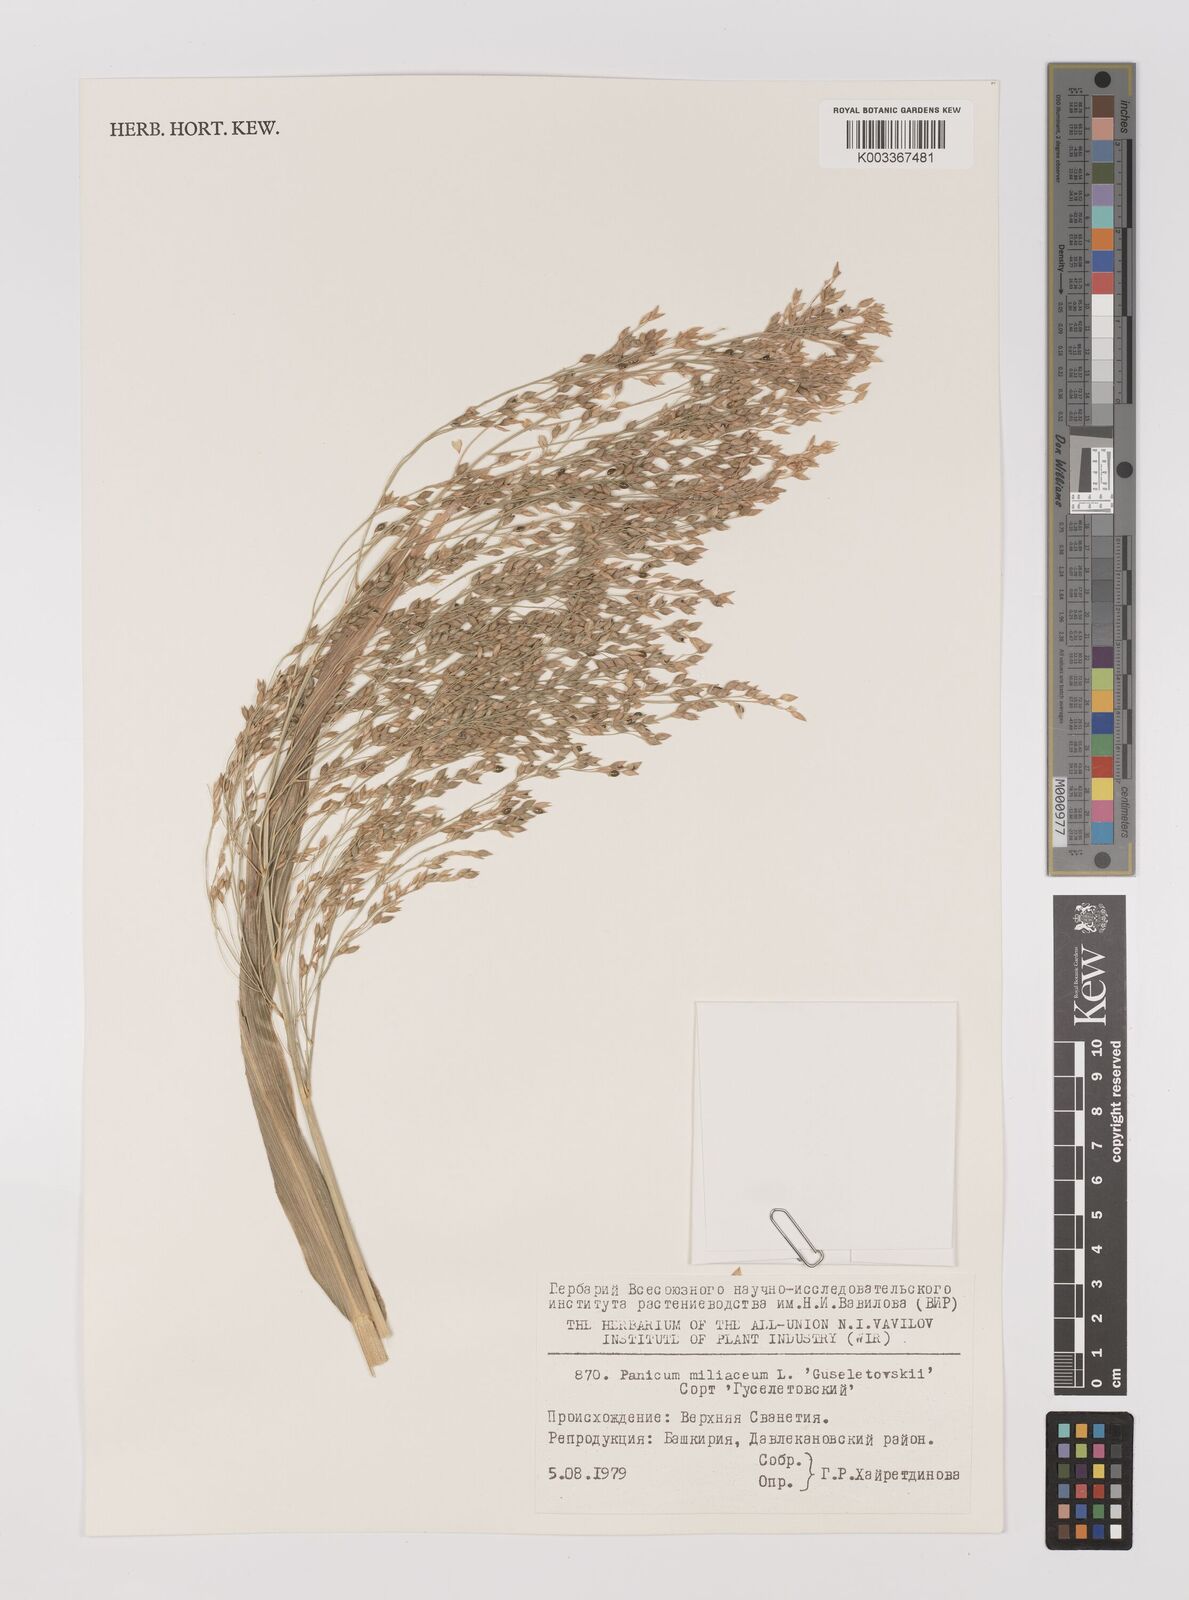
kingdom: Plantae
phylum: Tracheophyta
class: Liliopsida
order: Poales
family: Poaceae
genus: Panicum
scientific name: Panicum miliaceum
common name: Common millet
